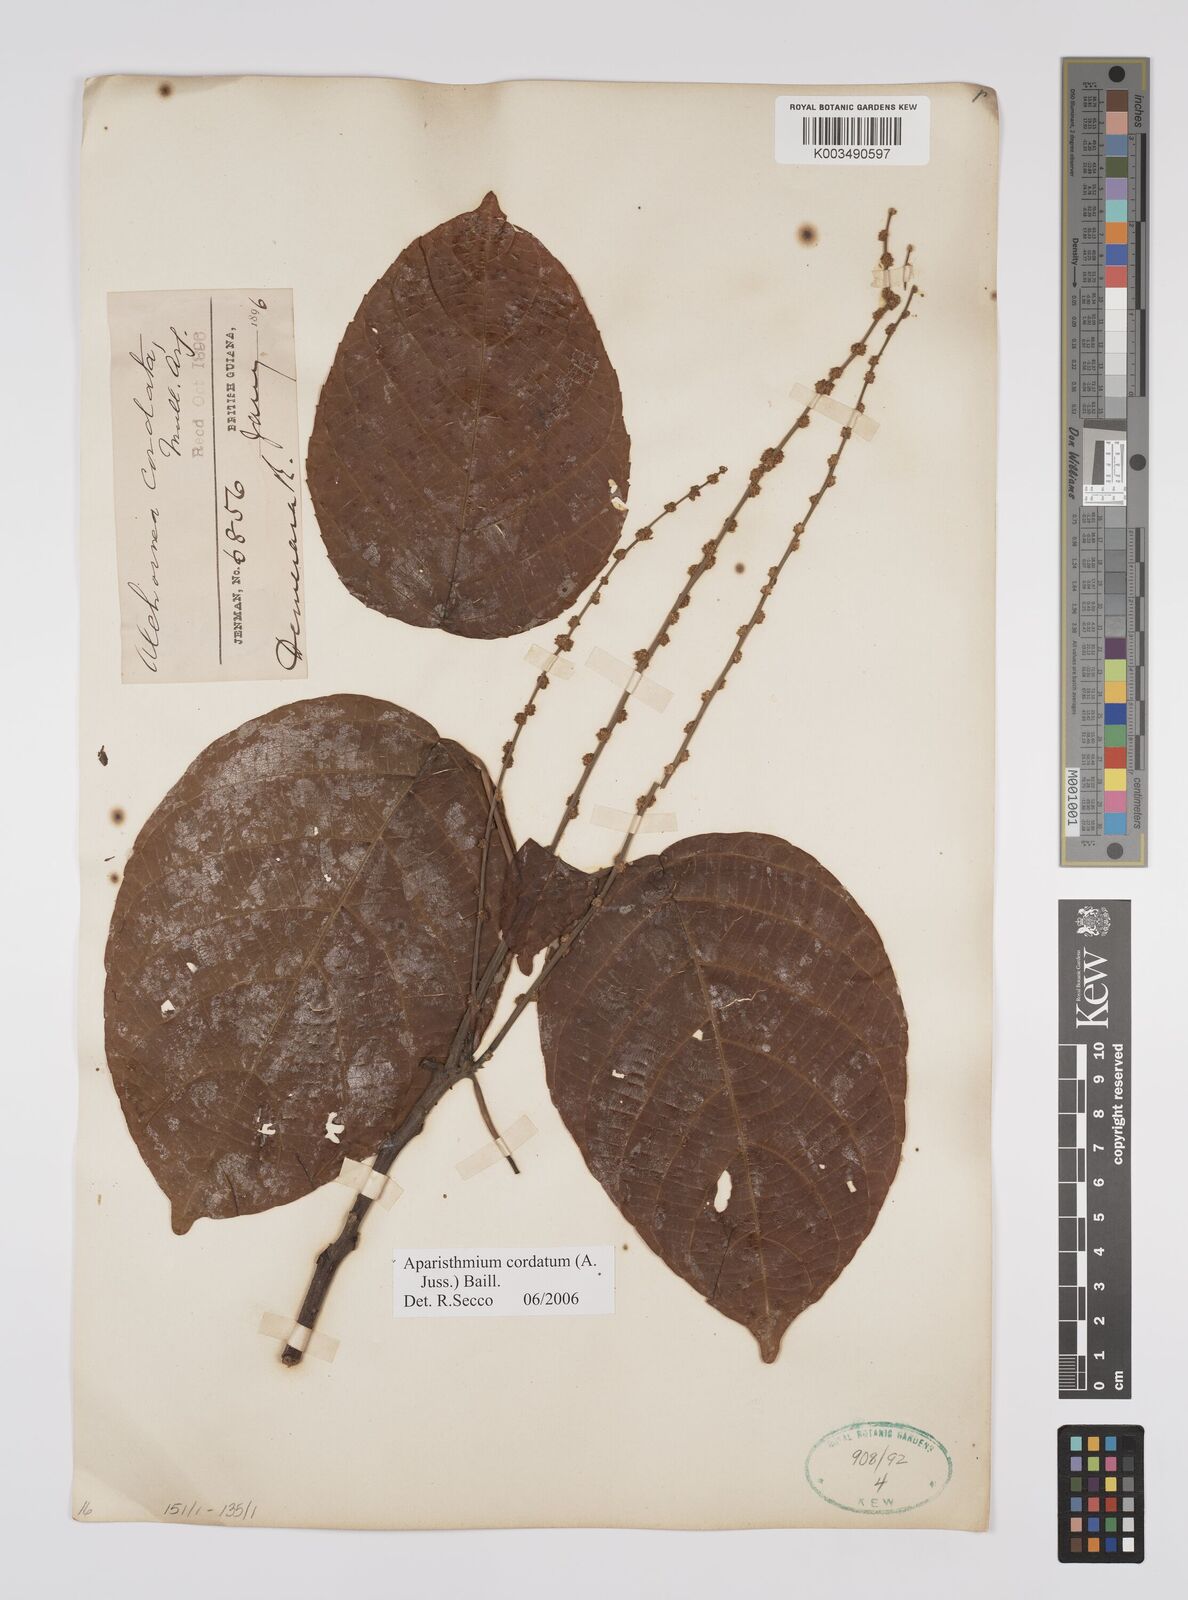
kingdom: Plantae
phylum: Tracheophyta
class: Magnoliopsida
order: Malpighiales
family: Euphorbiaceae
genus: Aparisthmium
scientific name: Aparisthmium cordatum
